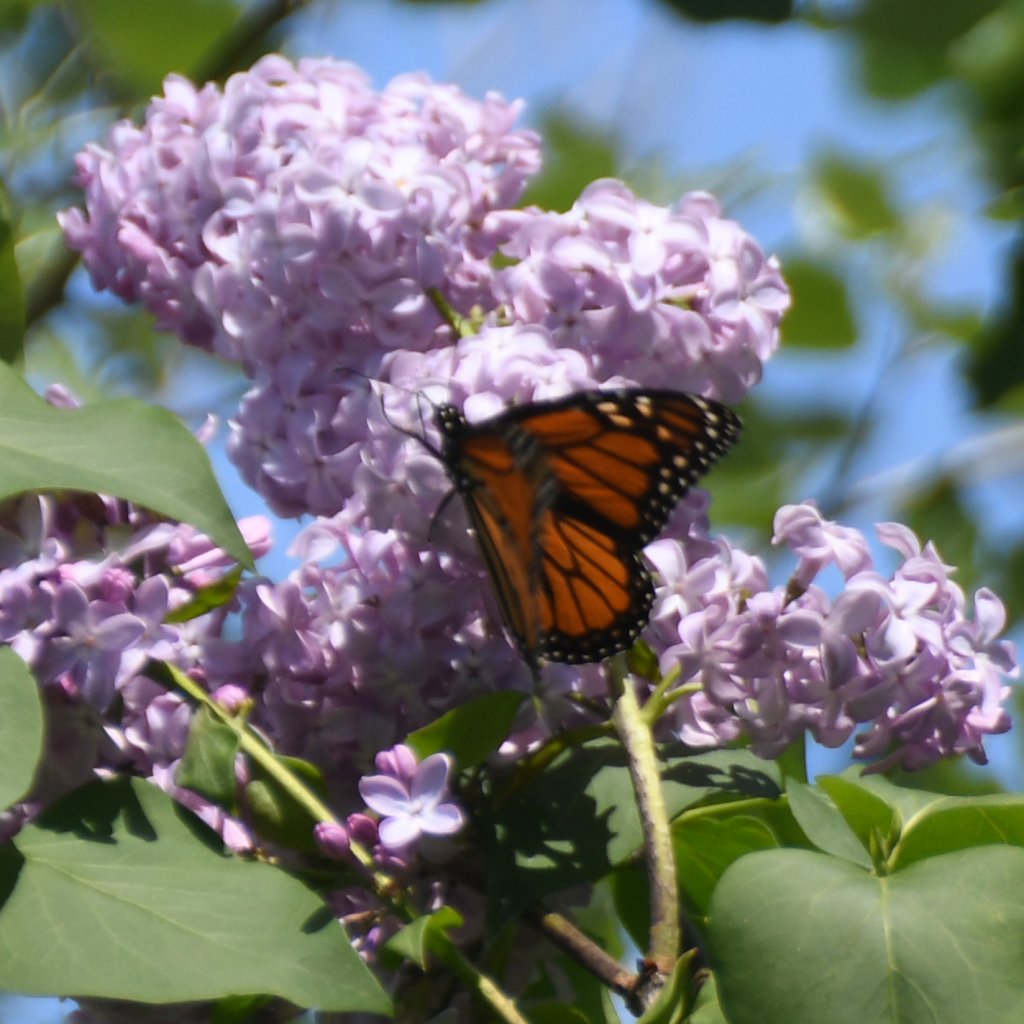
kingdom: Animalia
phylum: Arthropoda
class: Insecta
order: Lepidoptera
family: Nymphalidae
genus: Danaus
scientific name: Danaus plexippus
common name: Monarch
